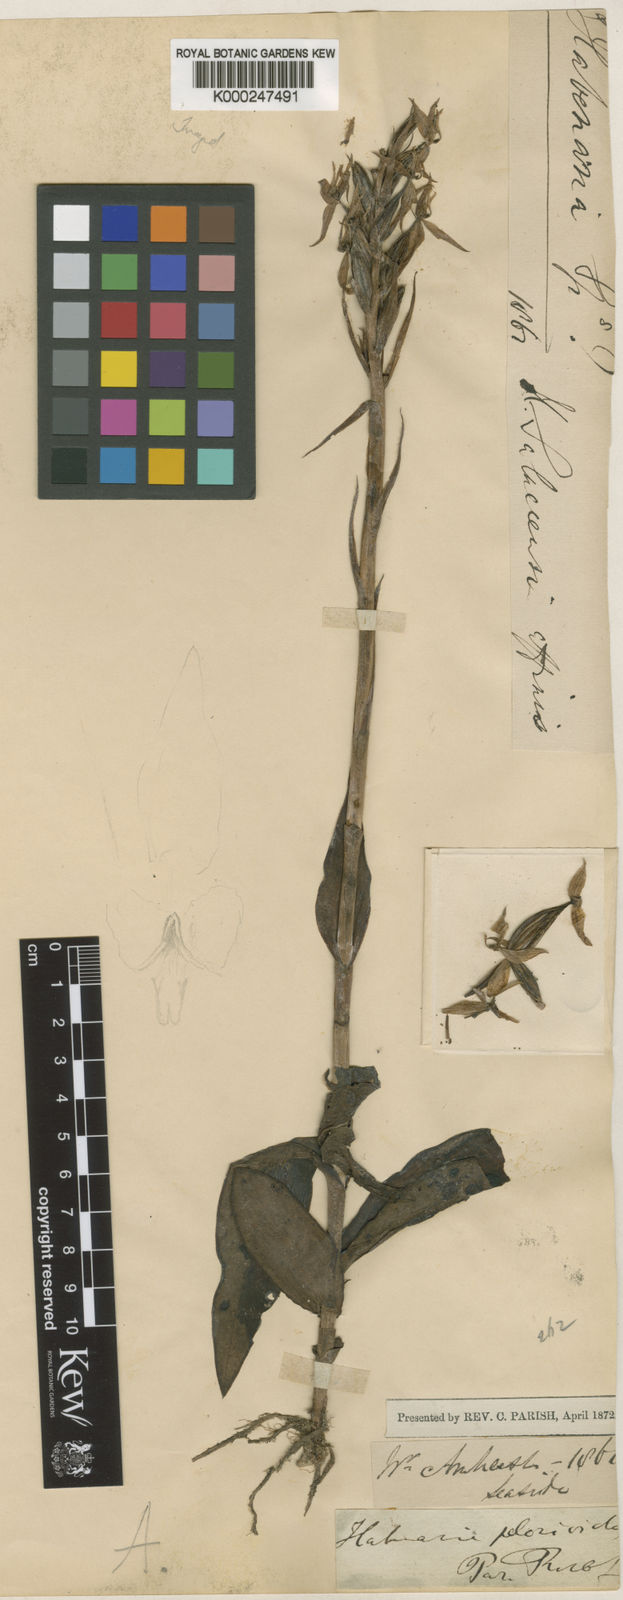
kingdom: Plantae
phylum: Tracheophyta
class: Liliopsida
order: Asparagales
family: Orchidaceae
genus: Habenaria
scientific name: Habenaria malintana
